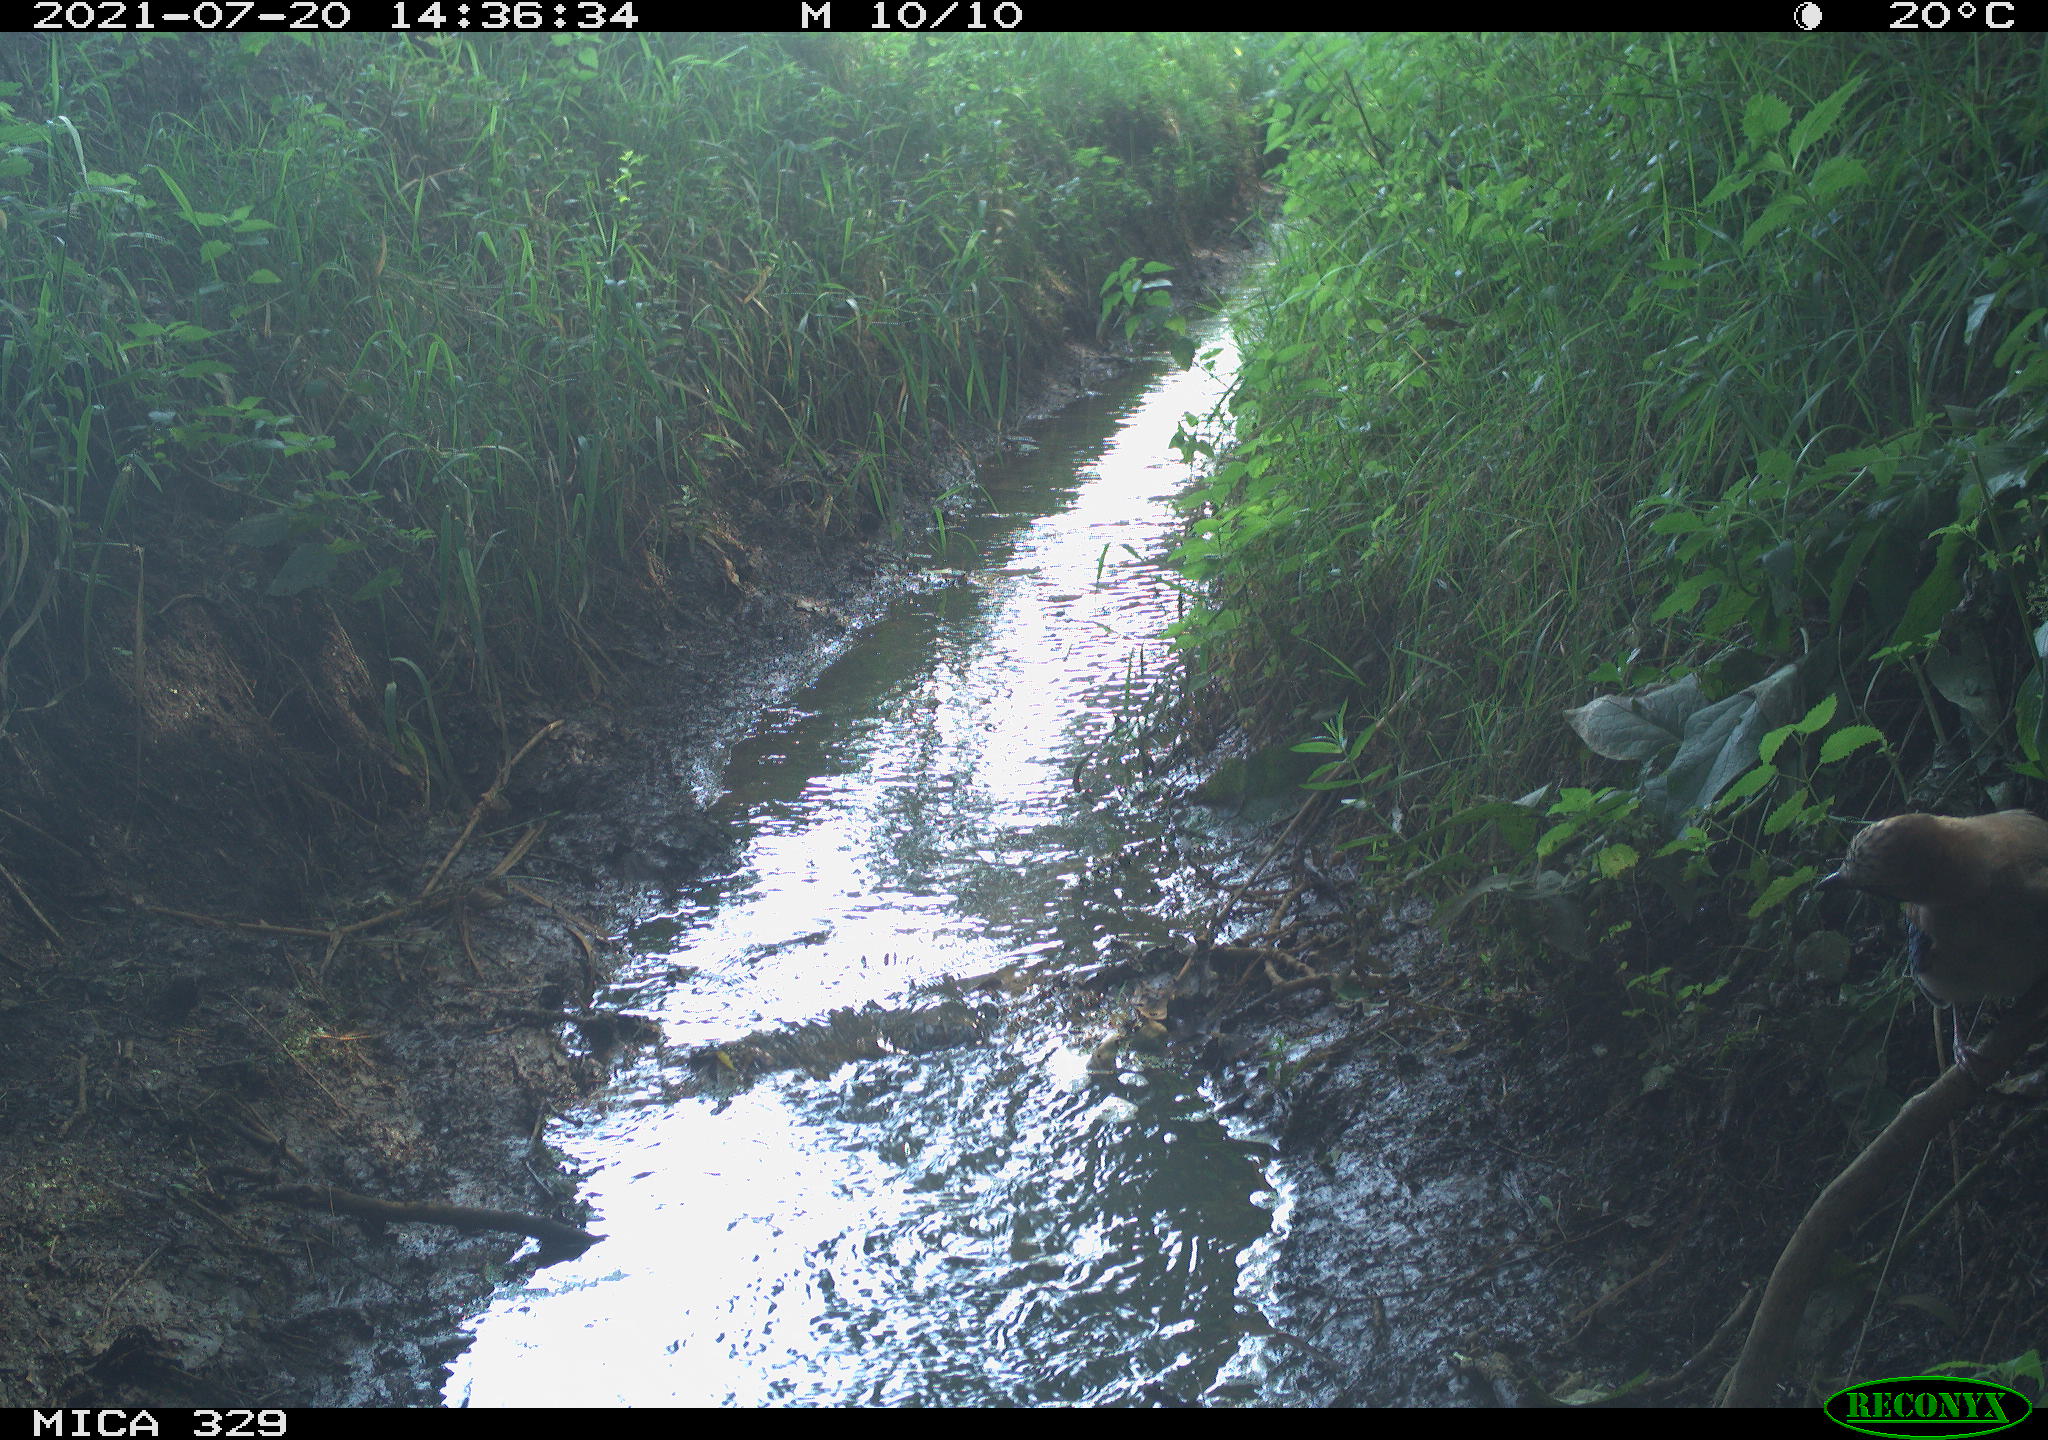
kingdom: Animalia
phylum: Chordata
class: Aves
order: Passeriformes
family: Corvidae
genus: Garrulus
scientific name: Garrulus glandarius
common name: Eurasian jay
